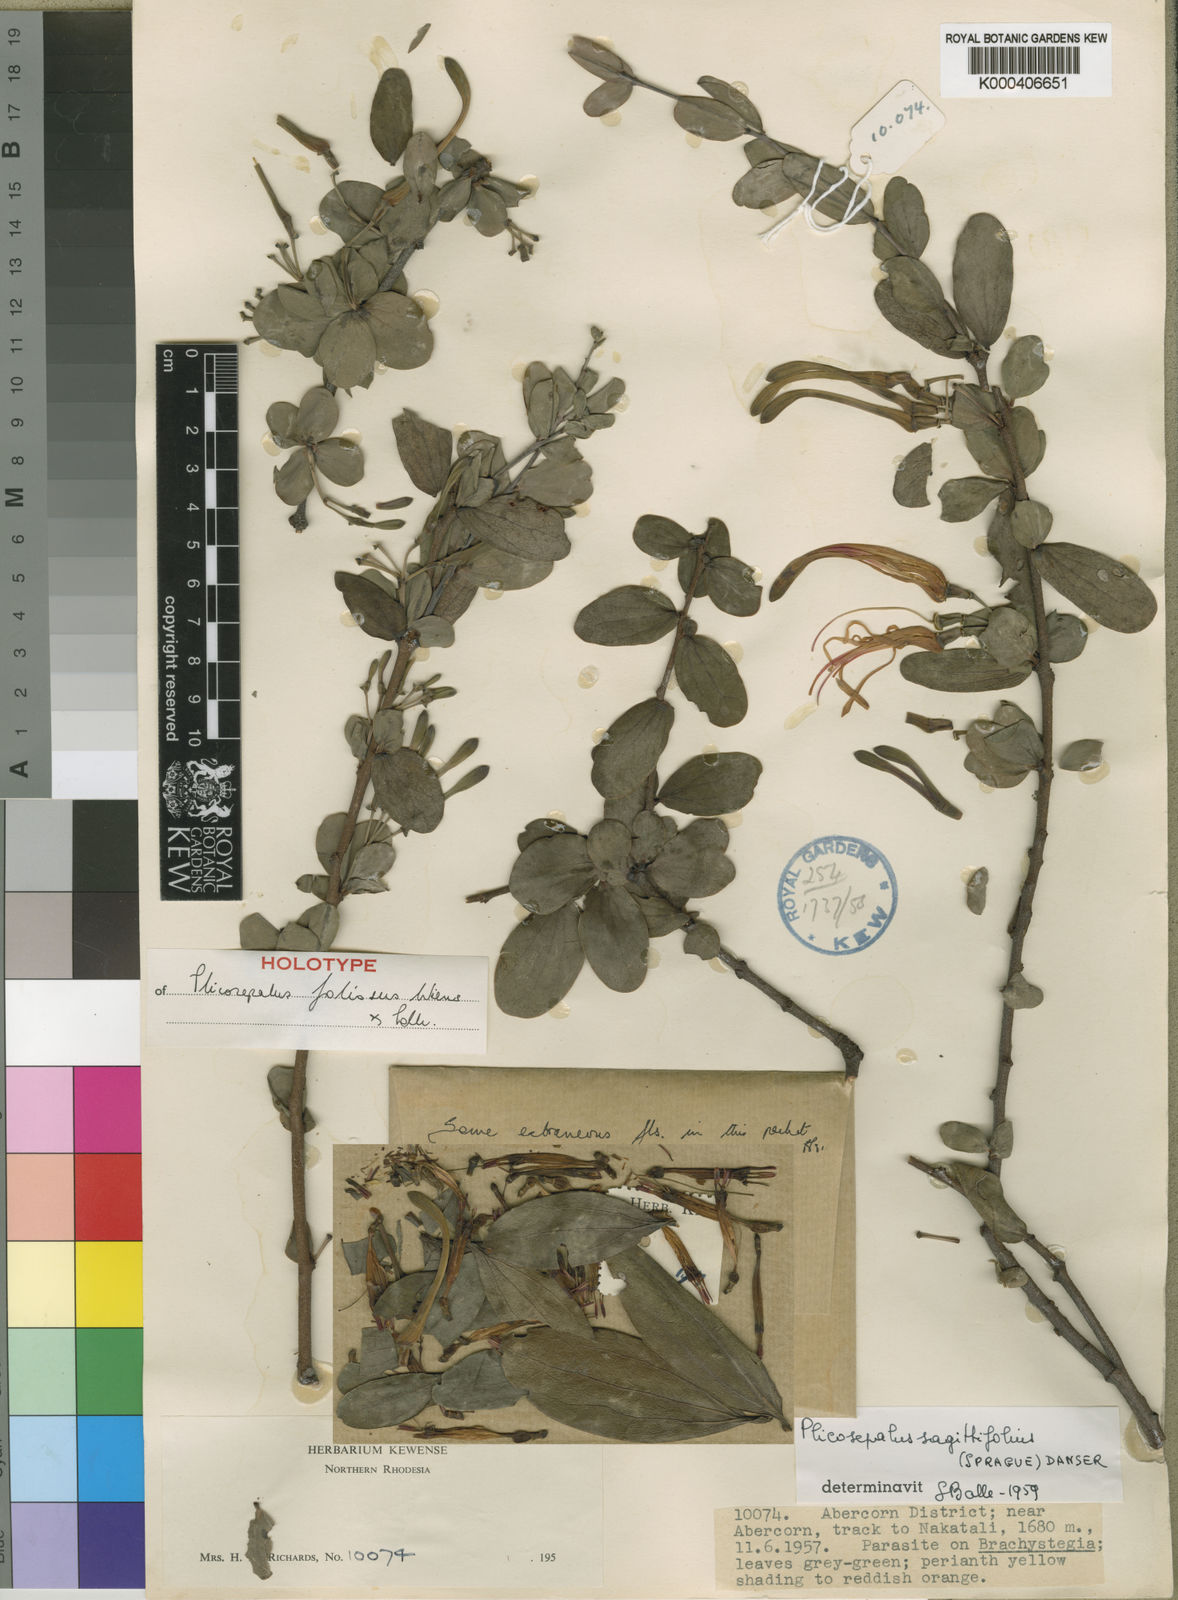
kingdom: Plantae
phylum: Tracheophyta
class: Magnoliopsida
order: Santalales
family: Loranthaceae
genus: Plicosepalus
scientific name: Plicosepalus foliosus
